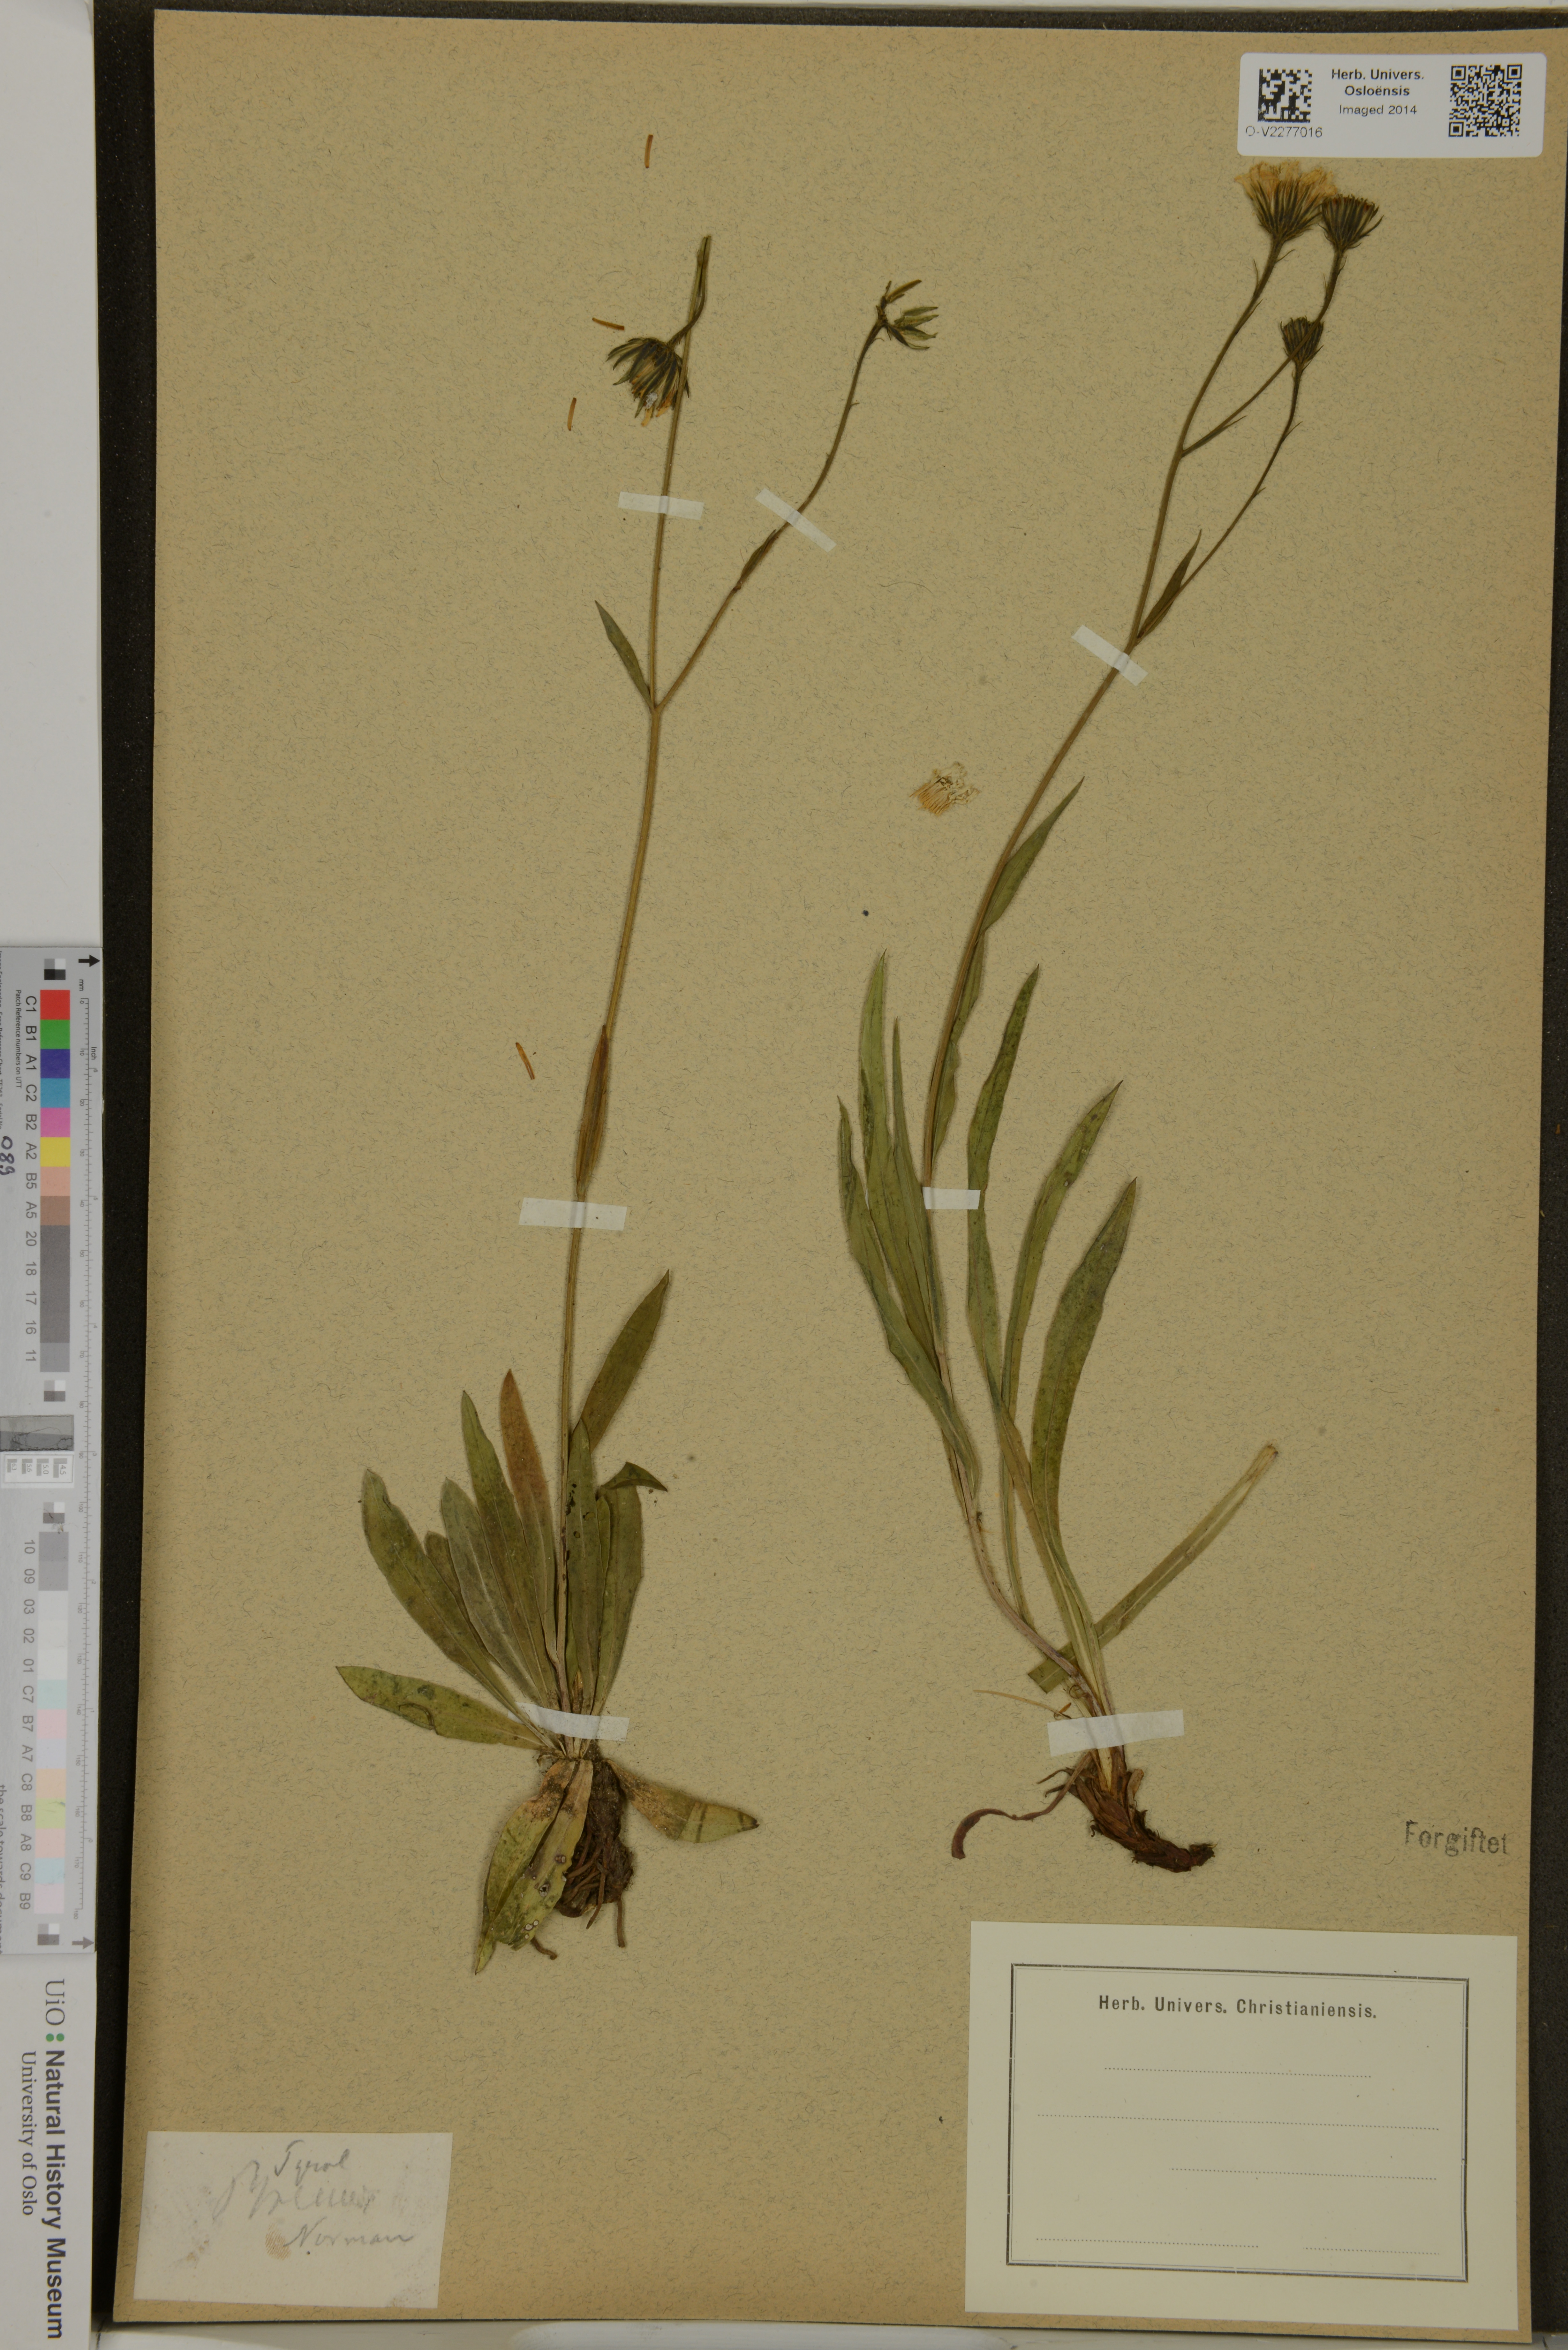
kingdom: Plantae
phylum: Tracheophyta
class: Magnoliopsida
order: Asterales
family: Asteraceae
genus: Hieracium
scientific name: Hieracium
